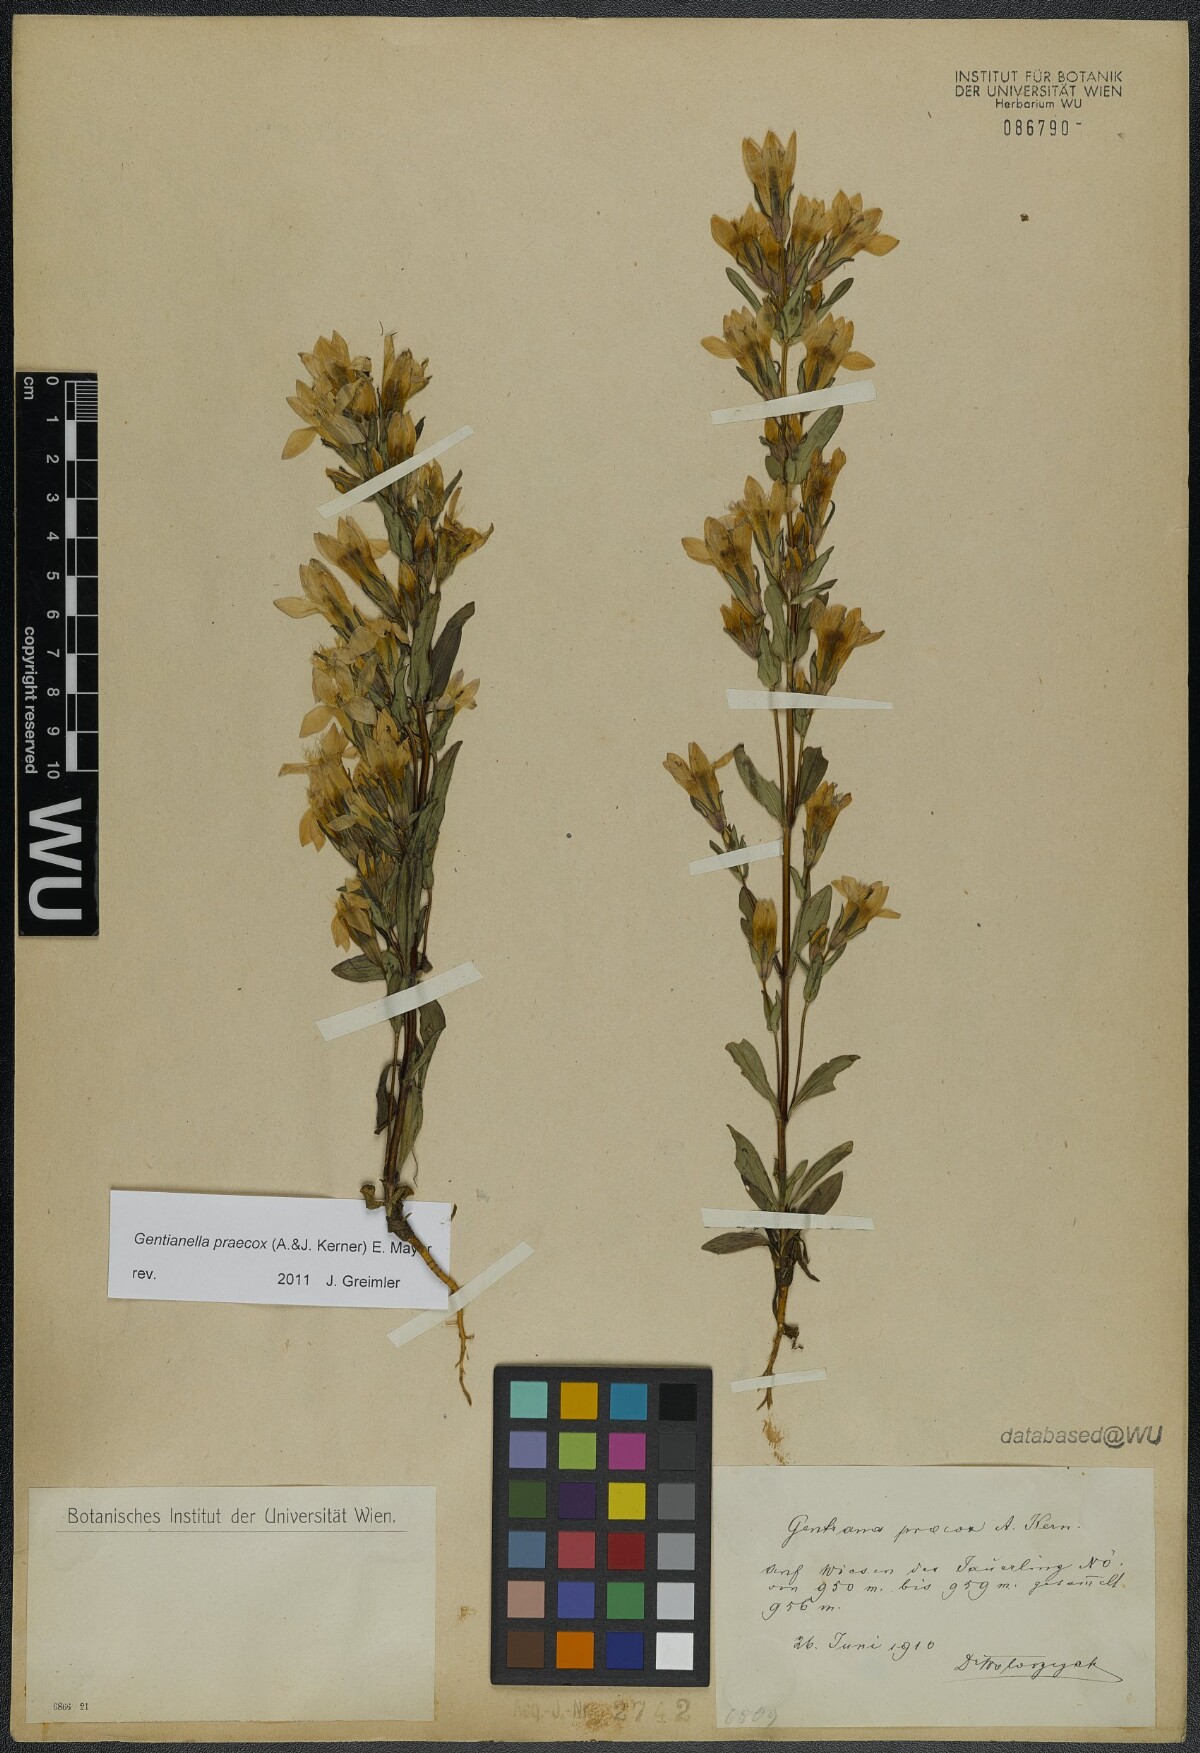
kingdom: Plantae
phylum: Tracheophyta
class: Magnoliopsida
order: Gentianales
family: Gentianaceae
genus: Gentianella
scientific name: Gentianella praecox
